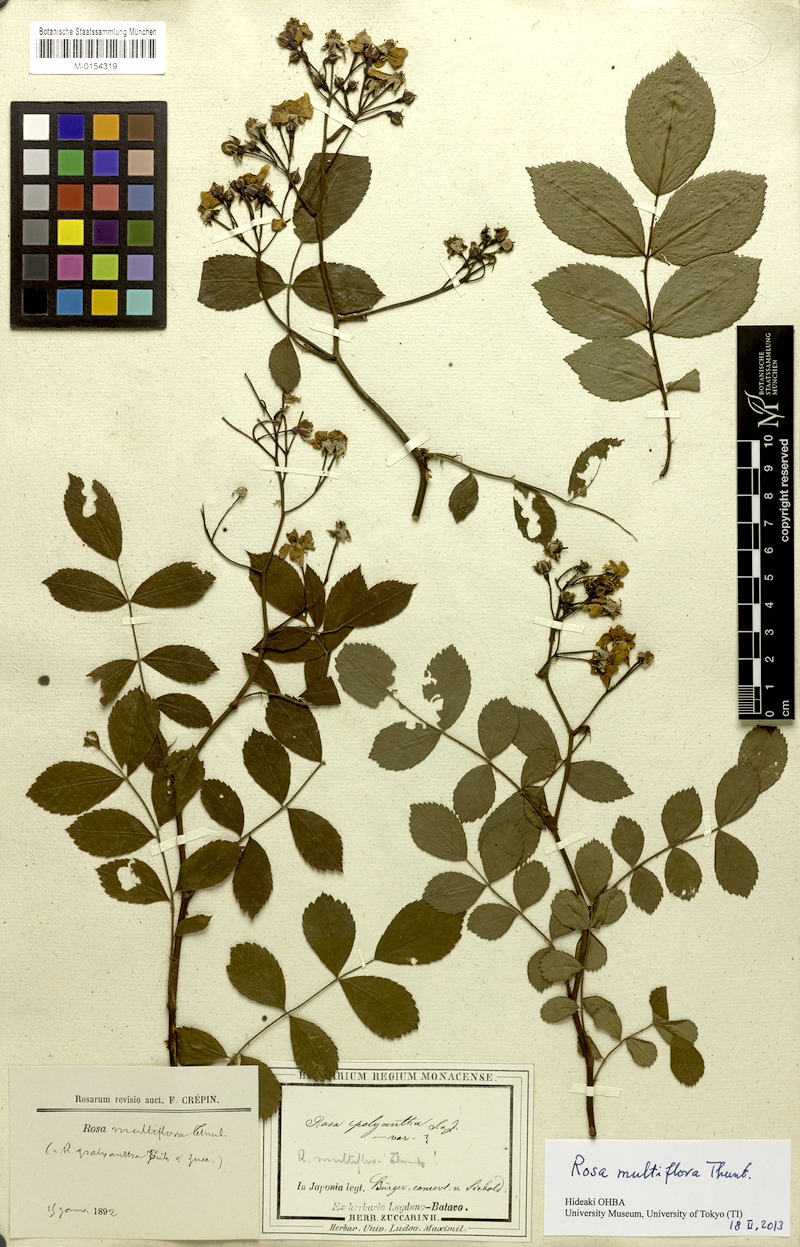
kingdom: Plantae
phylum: Tracheophyta
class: Magnoliopsida
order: Rosales
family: Rosaceae
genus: Rosa
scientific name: Rosa multiflora
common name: Multiflora rose
